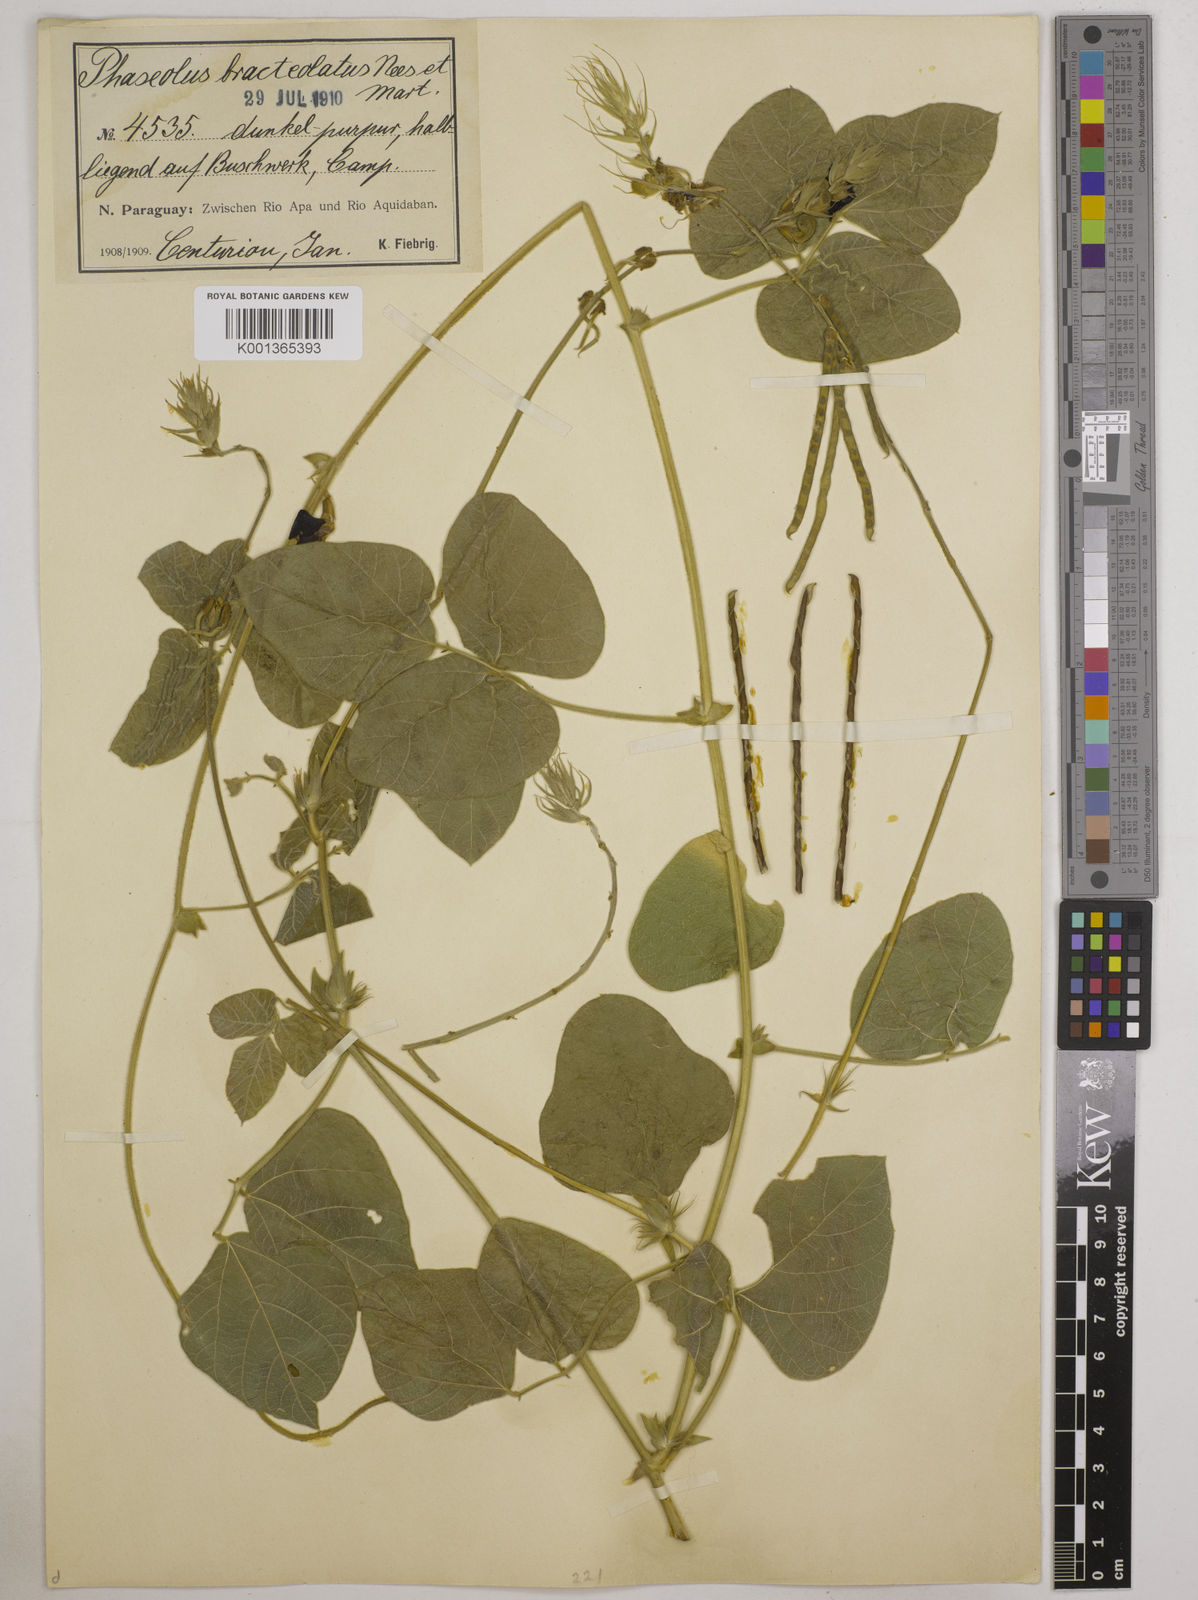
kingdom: Plantae
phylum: Tracheophyta
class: Magnoliopsida
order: Fabales
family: Fabaceae
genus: Macroptilium
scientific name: Macroptilium bracteatum
